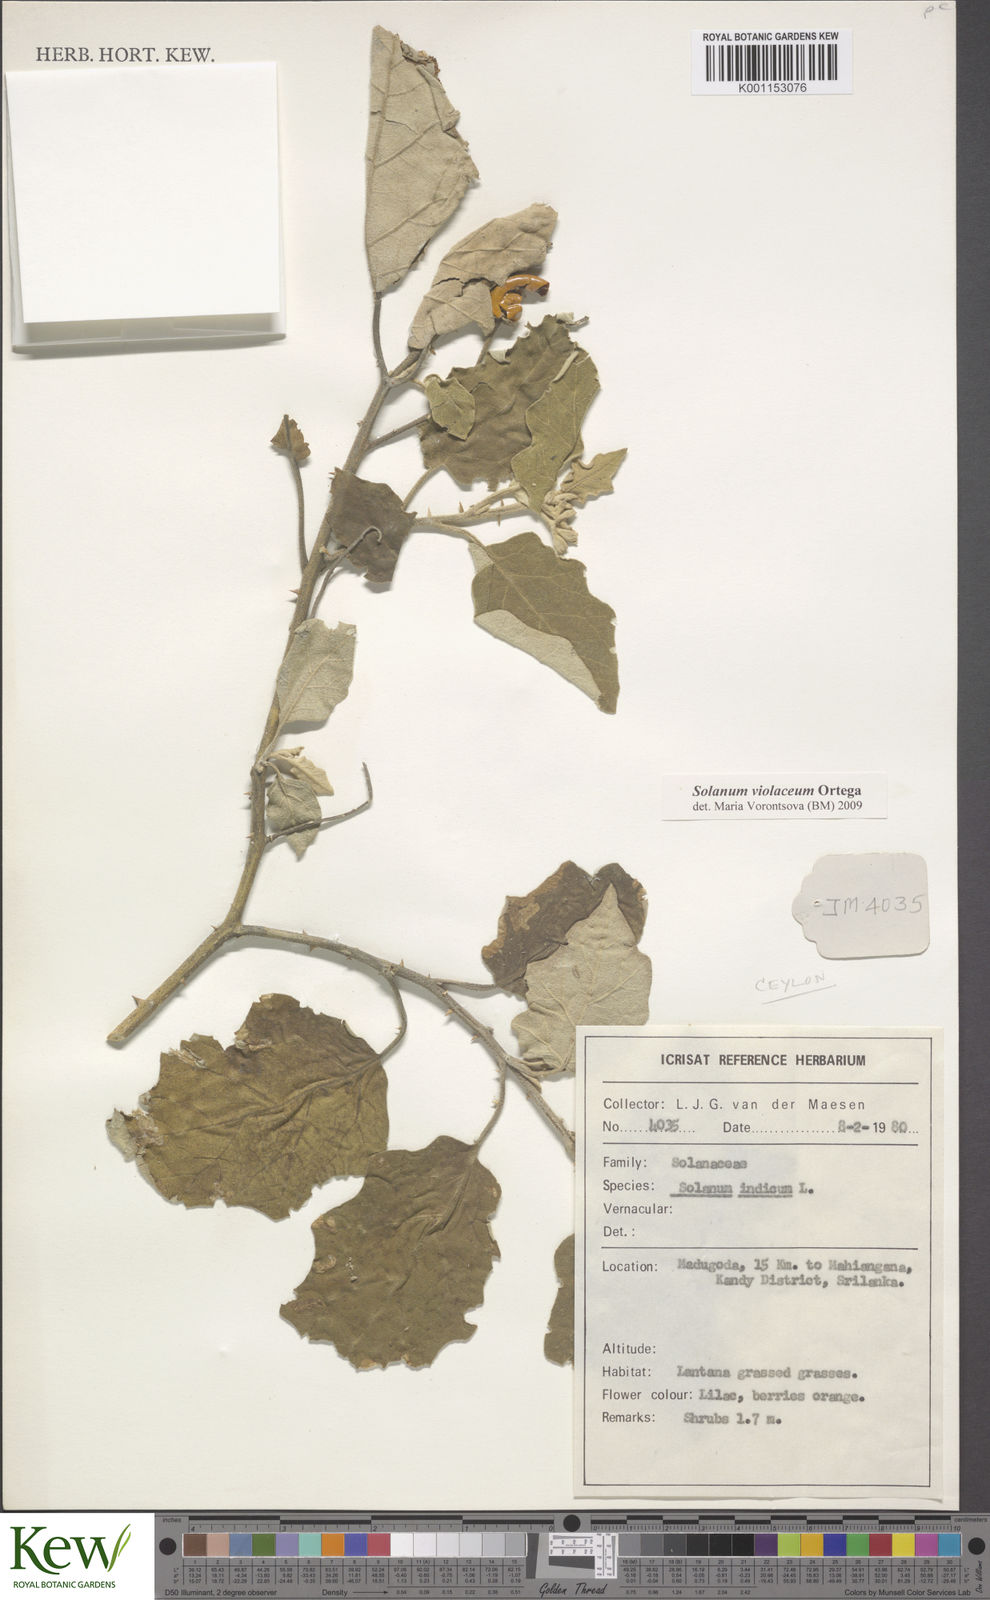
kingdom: Plantae
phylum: Tracheophyta
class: Magnoliopsida
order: Solanales
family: Solanaceae
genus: Solanum
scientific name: Solanum violaceum
